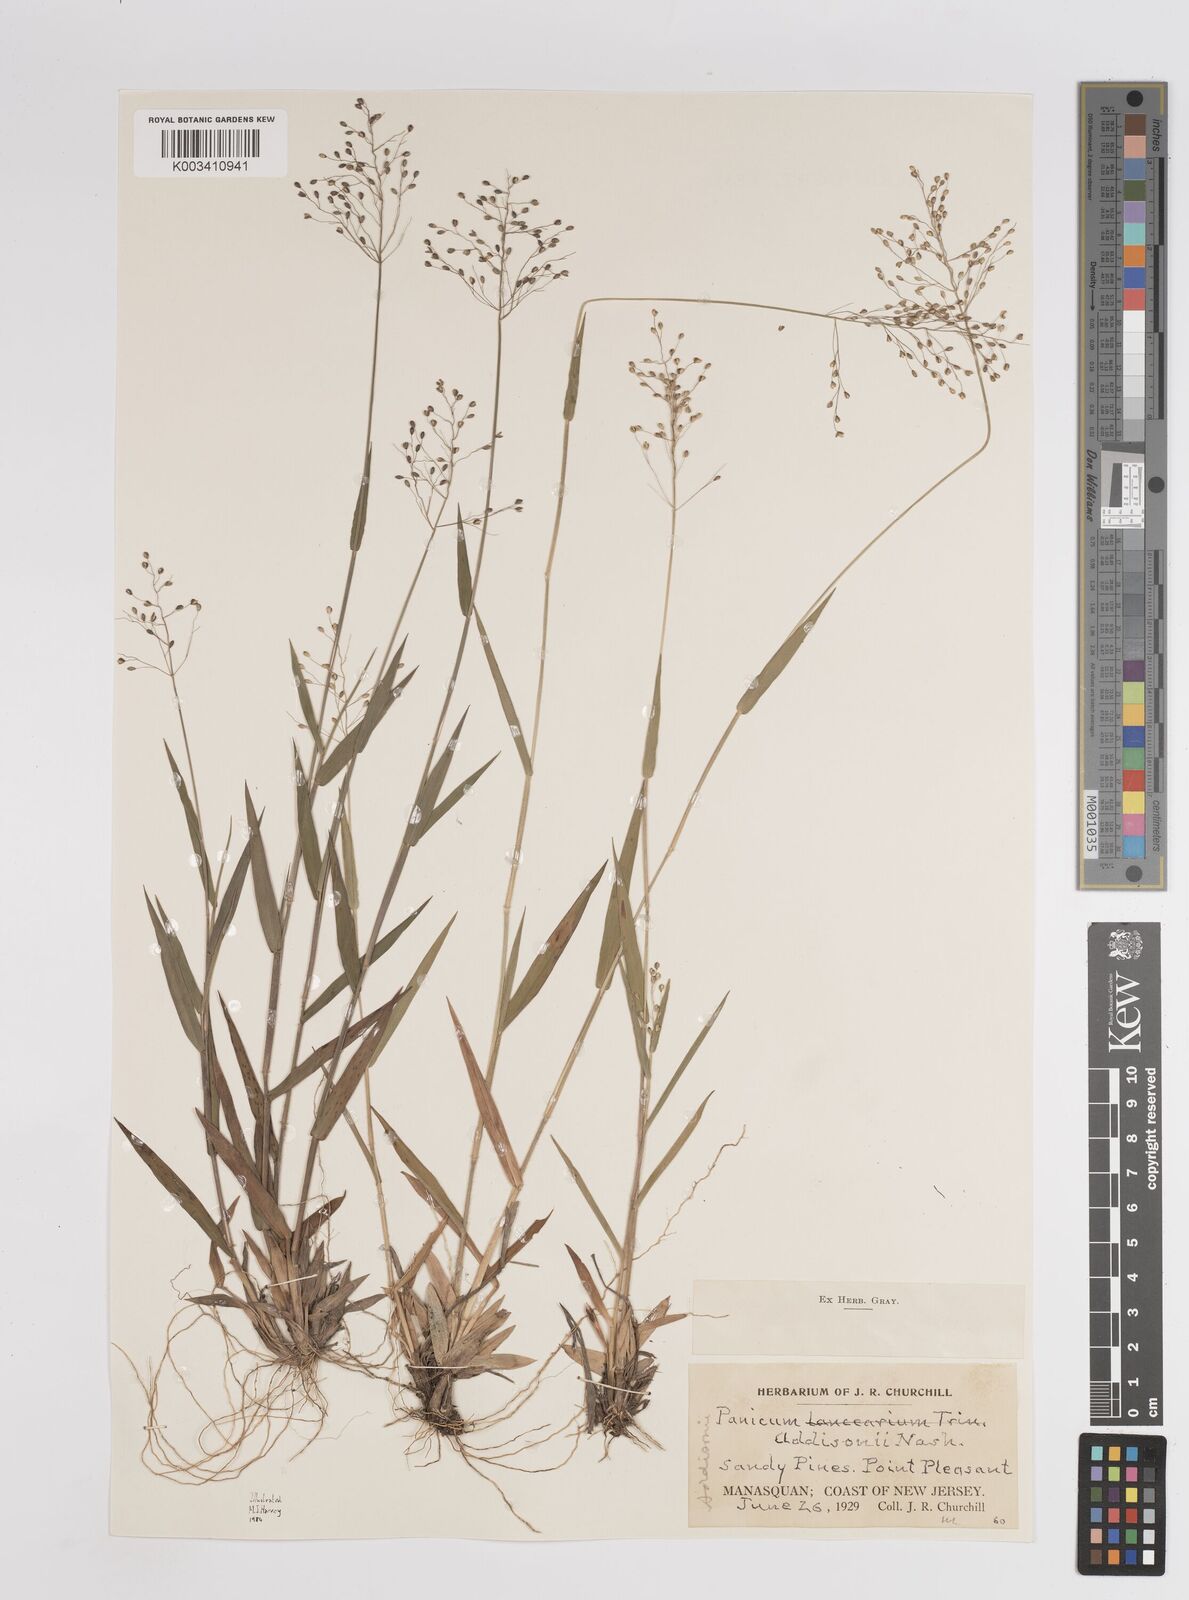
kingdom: Plantae
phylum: Tracheophyta
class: Liliopsida
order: Poales
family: Poaceae
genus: Dichanthelium
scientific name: Dichanthelium commonsianum
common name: Commons' panicgrass
